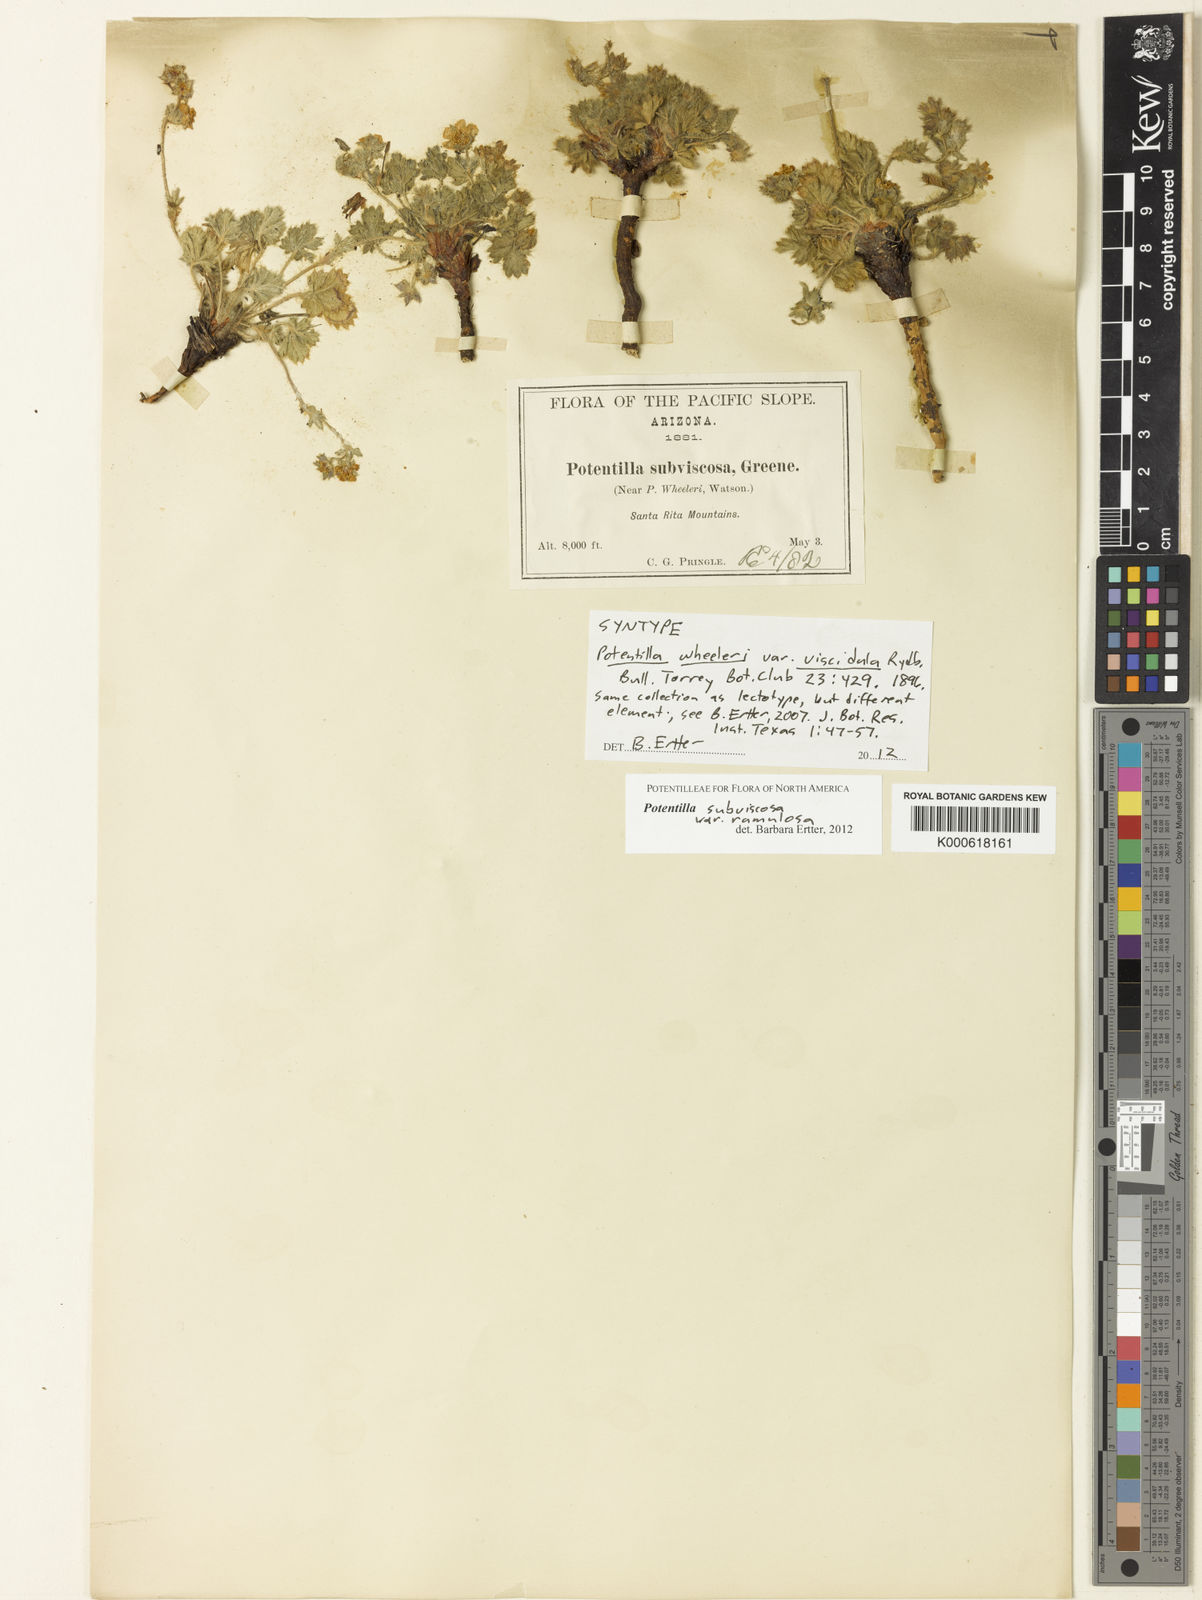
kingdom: Plantae
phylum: Tracheophyta
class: Magnoliopsida
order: Rosales
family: Rosaceae
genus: Potentilla
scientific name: Potentilla wheeleri
